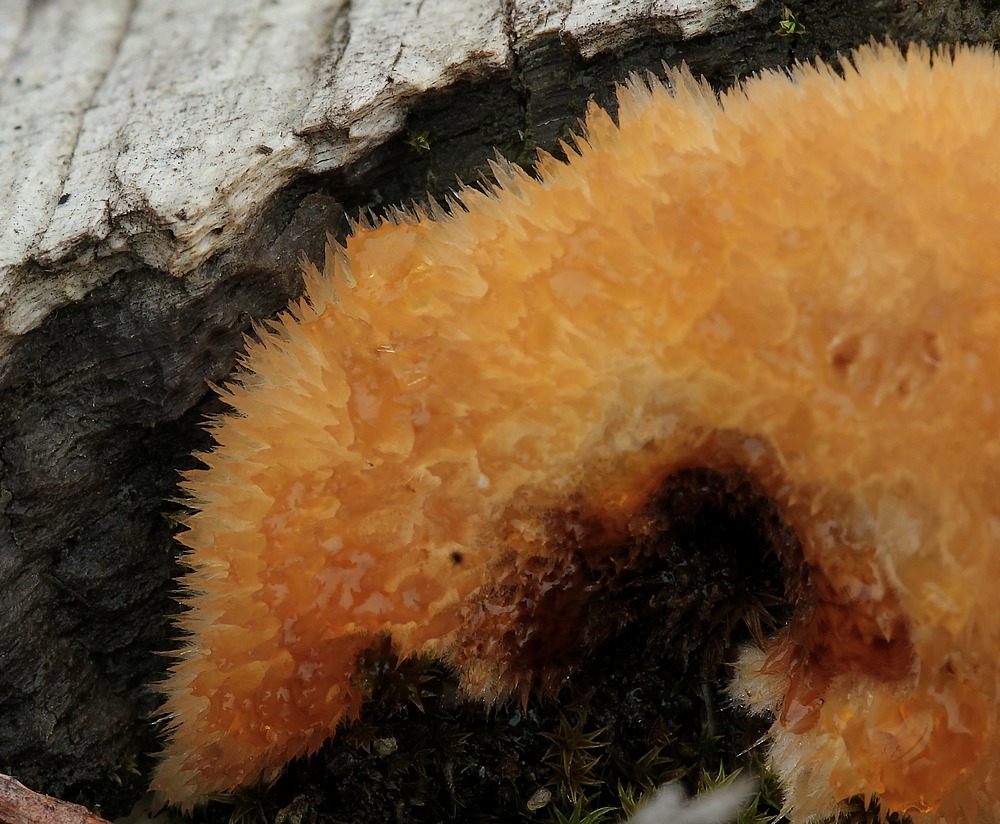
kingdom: Fungi
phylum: Basidiomycota
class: Agaricomycetes
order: Polyporales
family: Dacryobolaceae
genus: Postia
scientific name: Postia ptychogaster
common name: støvende kødporesvamp
